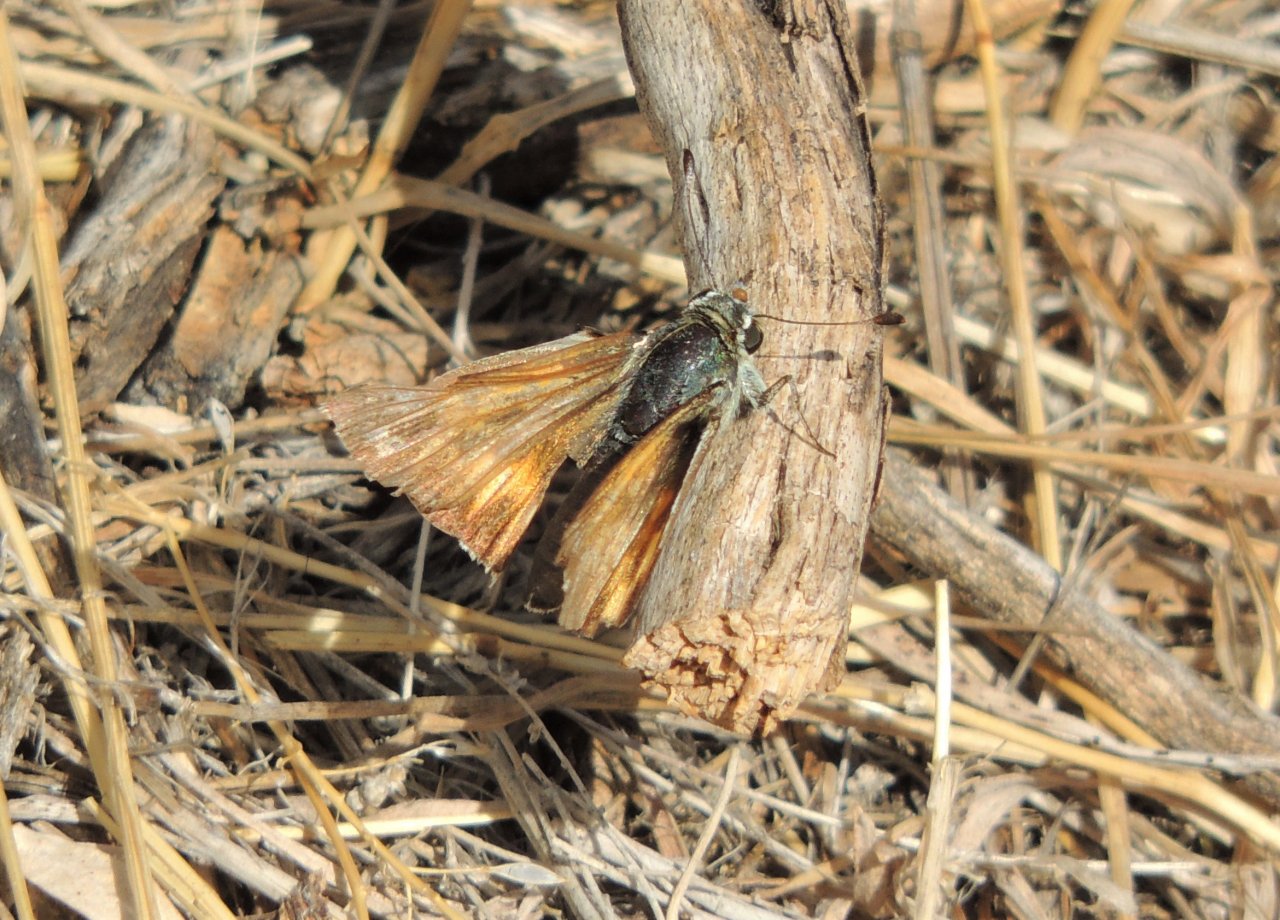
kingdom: Animalia
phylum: Arthropoda
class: Insecta
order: Lepidoptera
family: Hesperiidae
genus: Hesperia
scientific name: Hesperia
